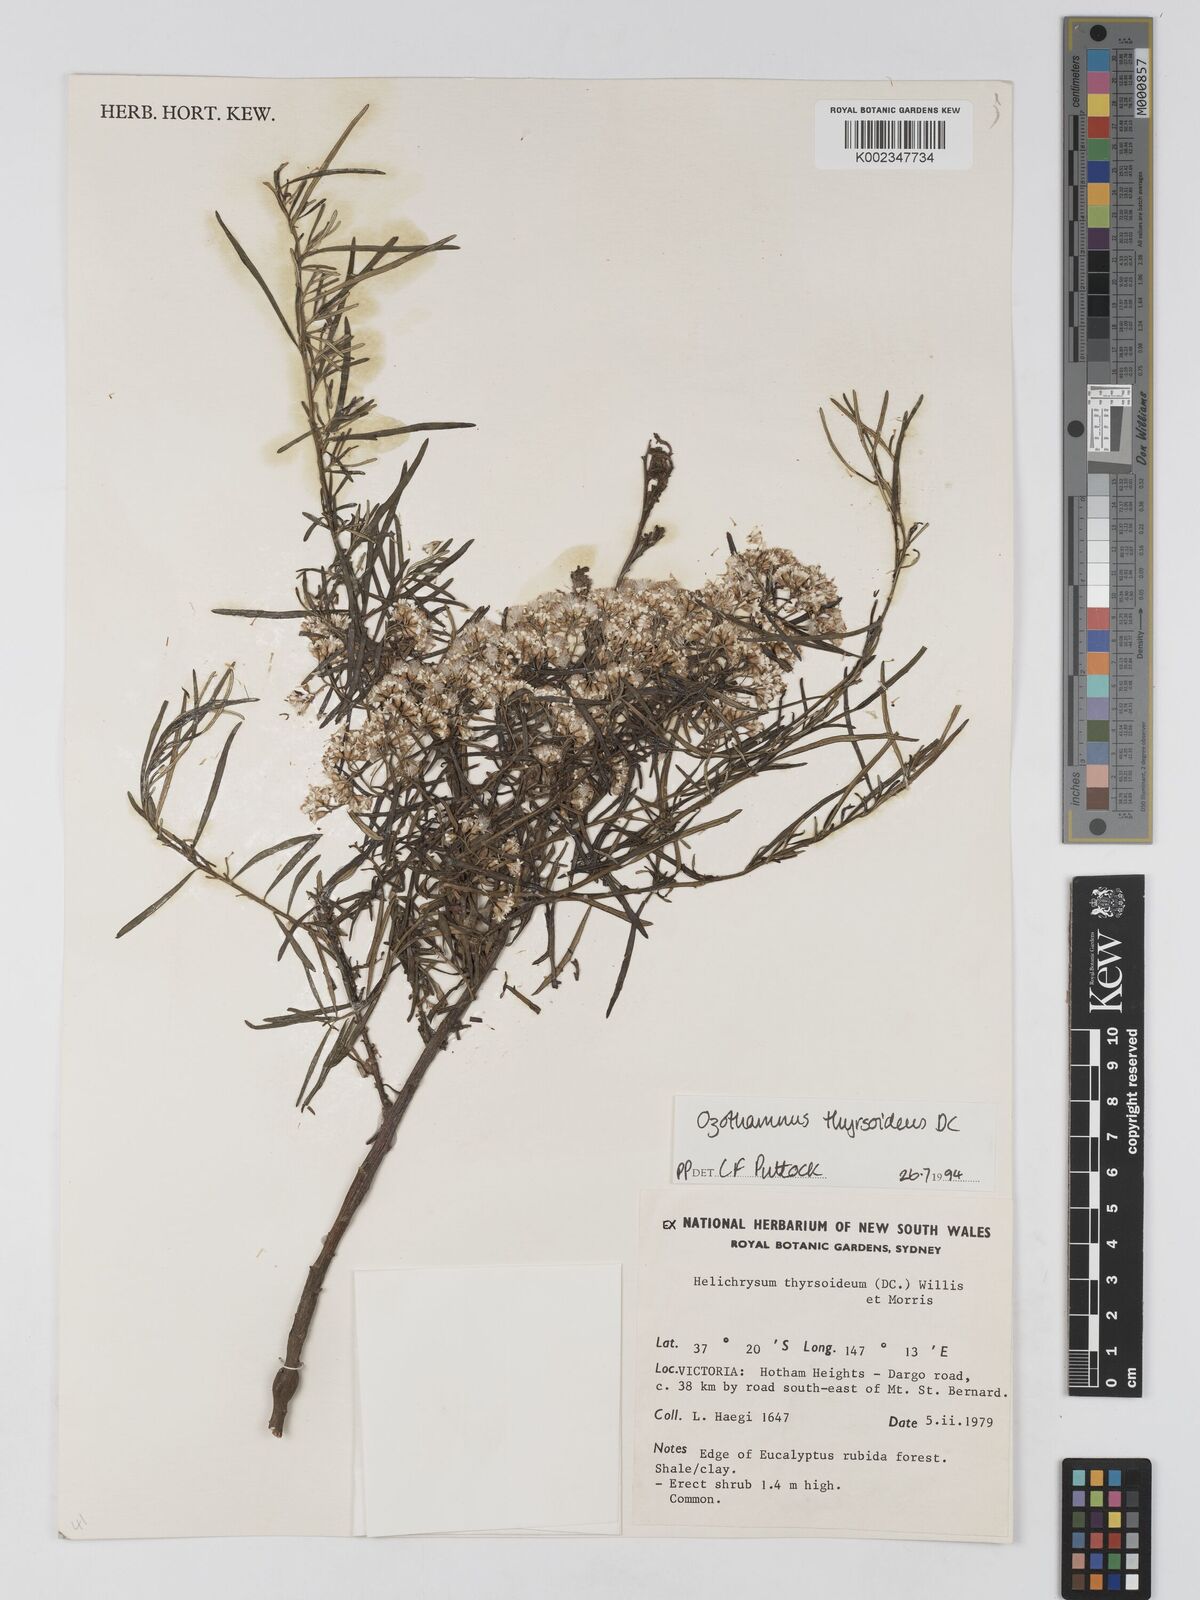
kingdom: Plantae
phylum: Tracheophyta
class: Magnoliopsida
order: Asterales
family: Asteraceae
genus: Ozothamnus
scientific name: Ozothamnus thyrsoideus
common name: Snow-in-summer
